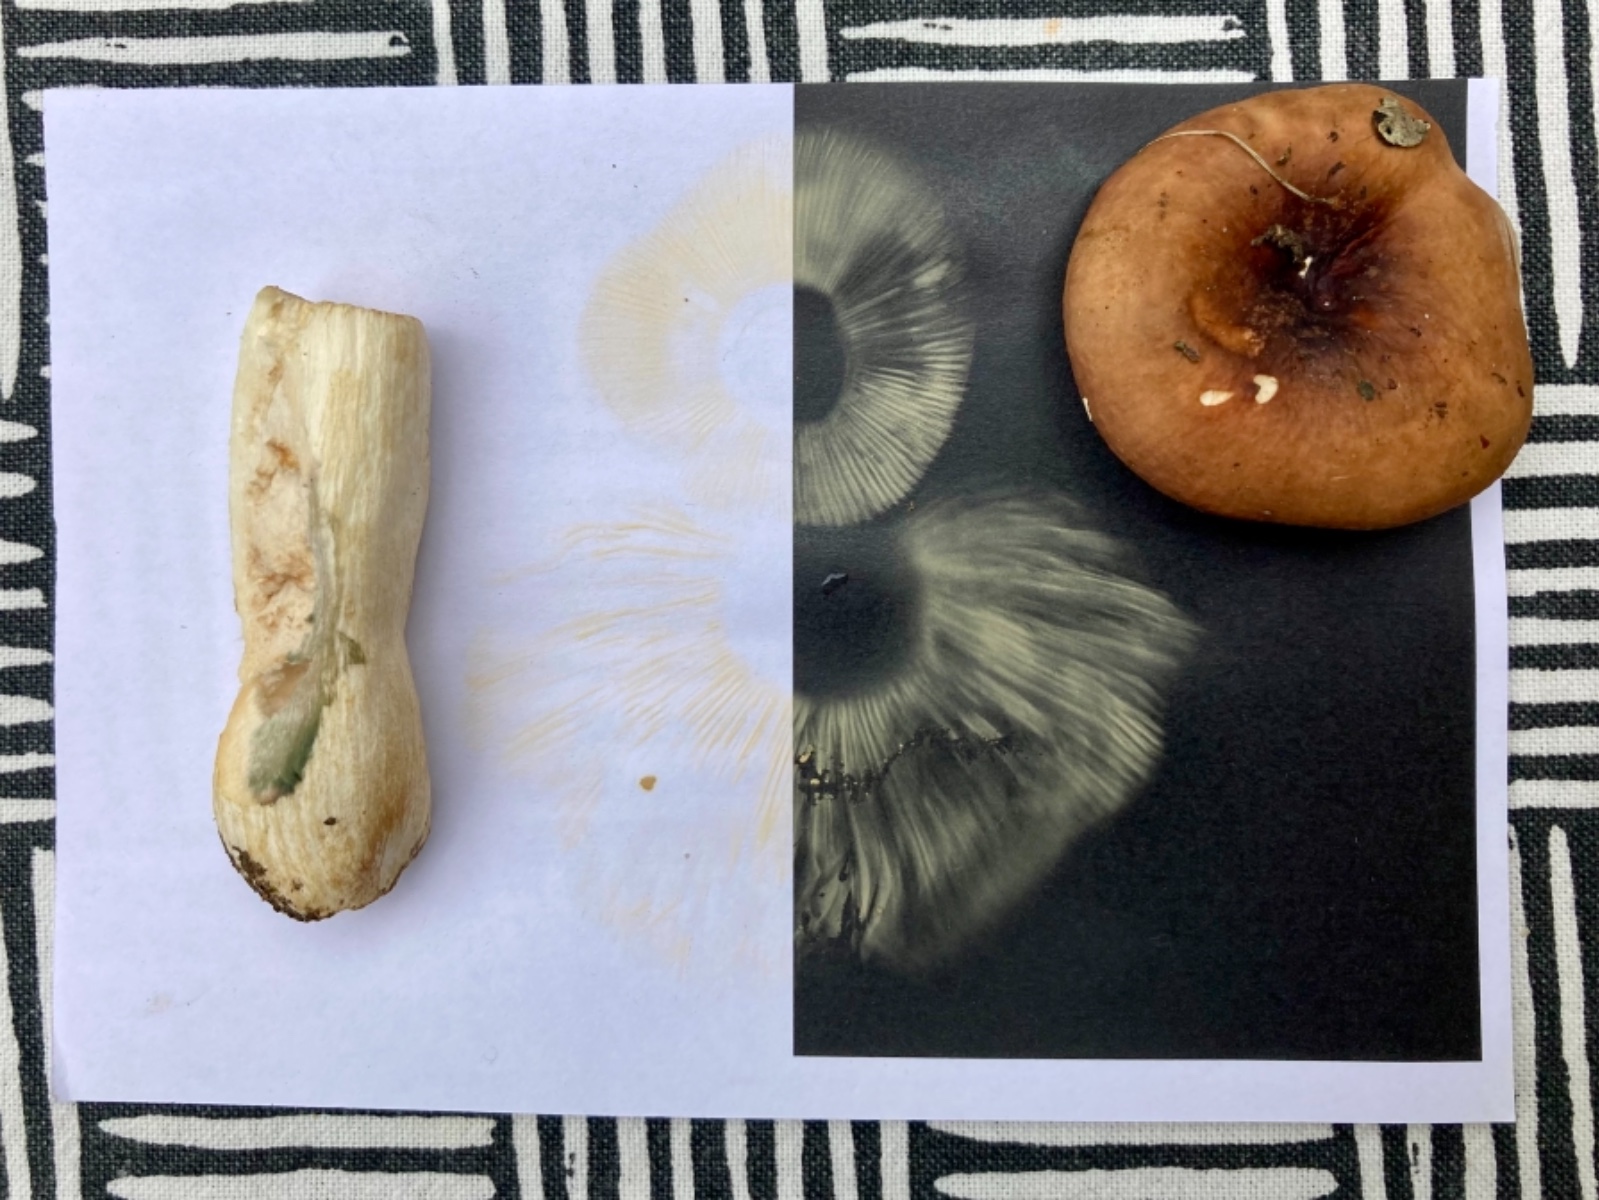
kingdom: Fungi
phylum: Basidiomycota
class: Agaricomycetes
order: Russulales
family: Russulaceae
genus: Russula
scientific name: Russula
